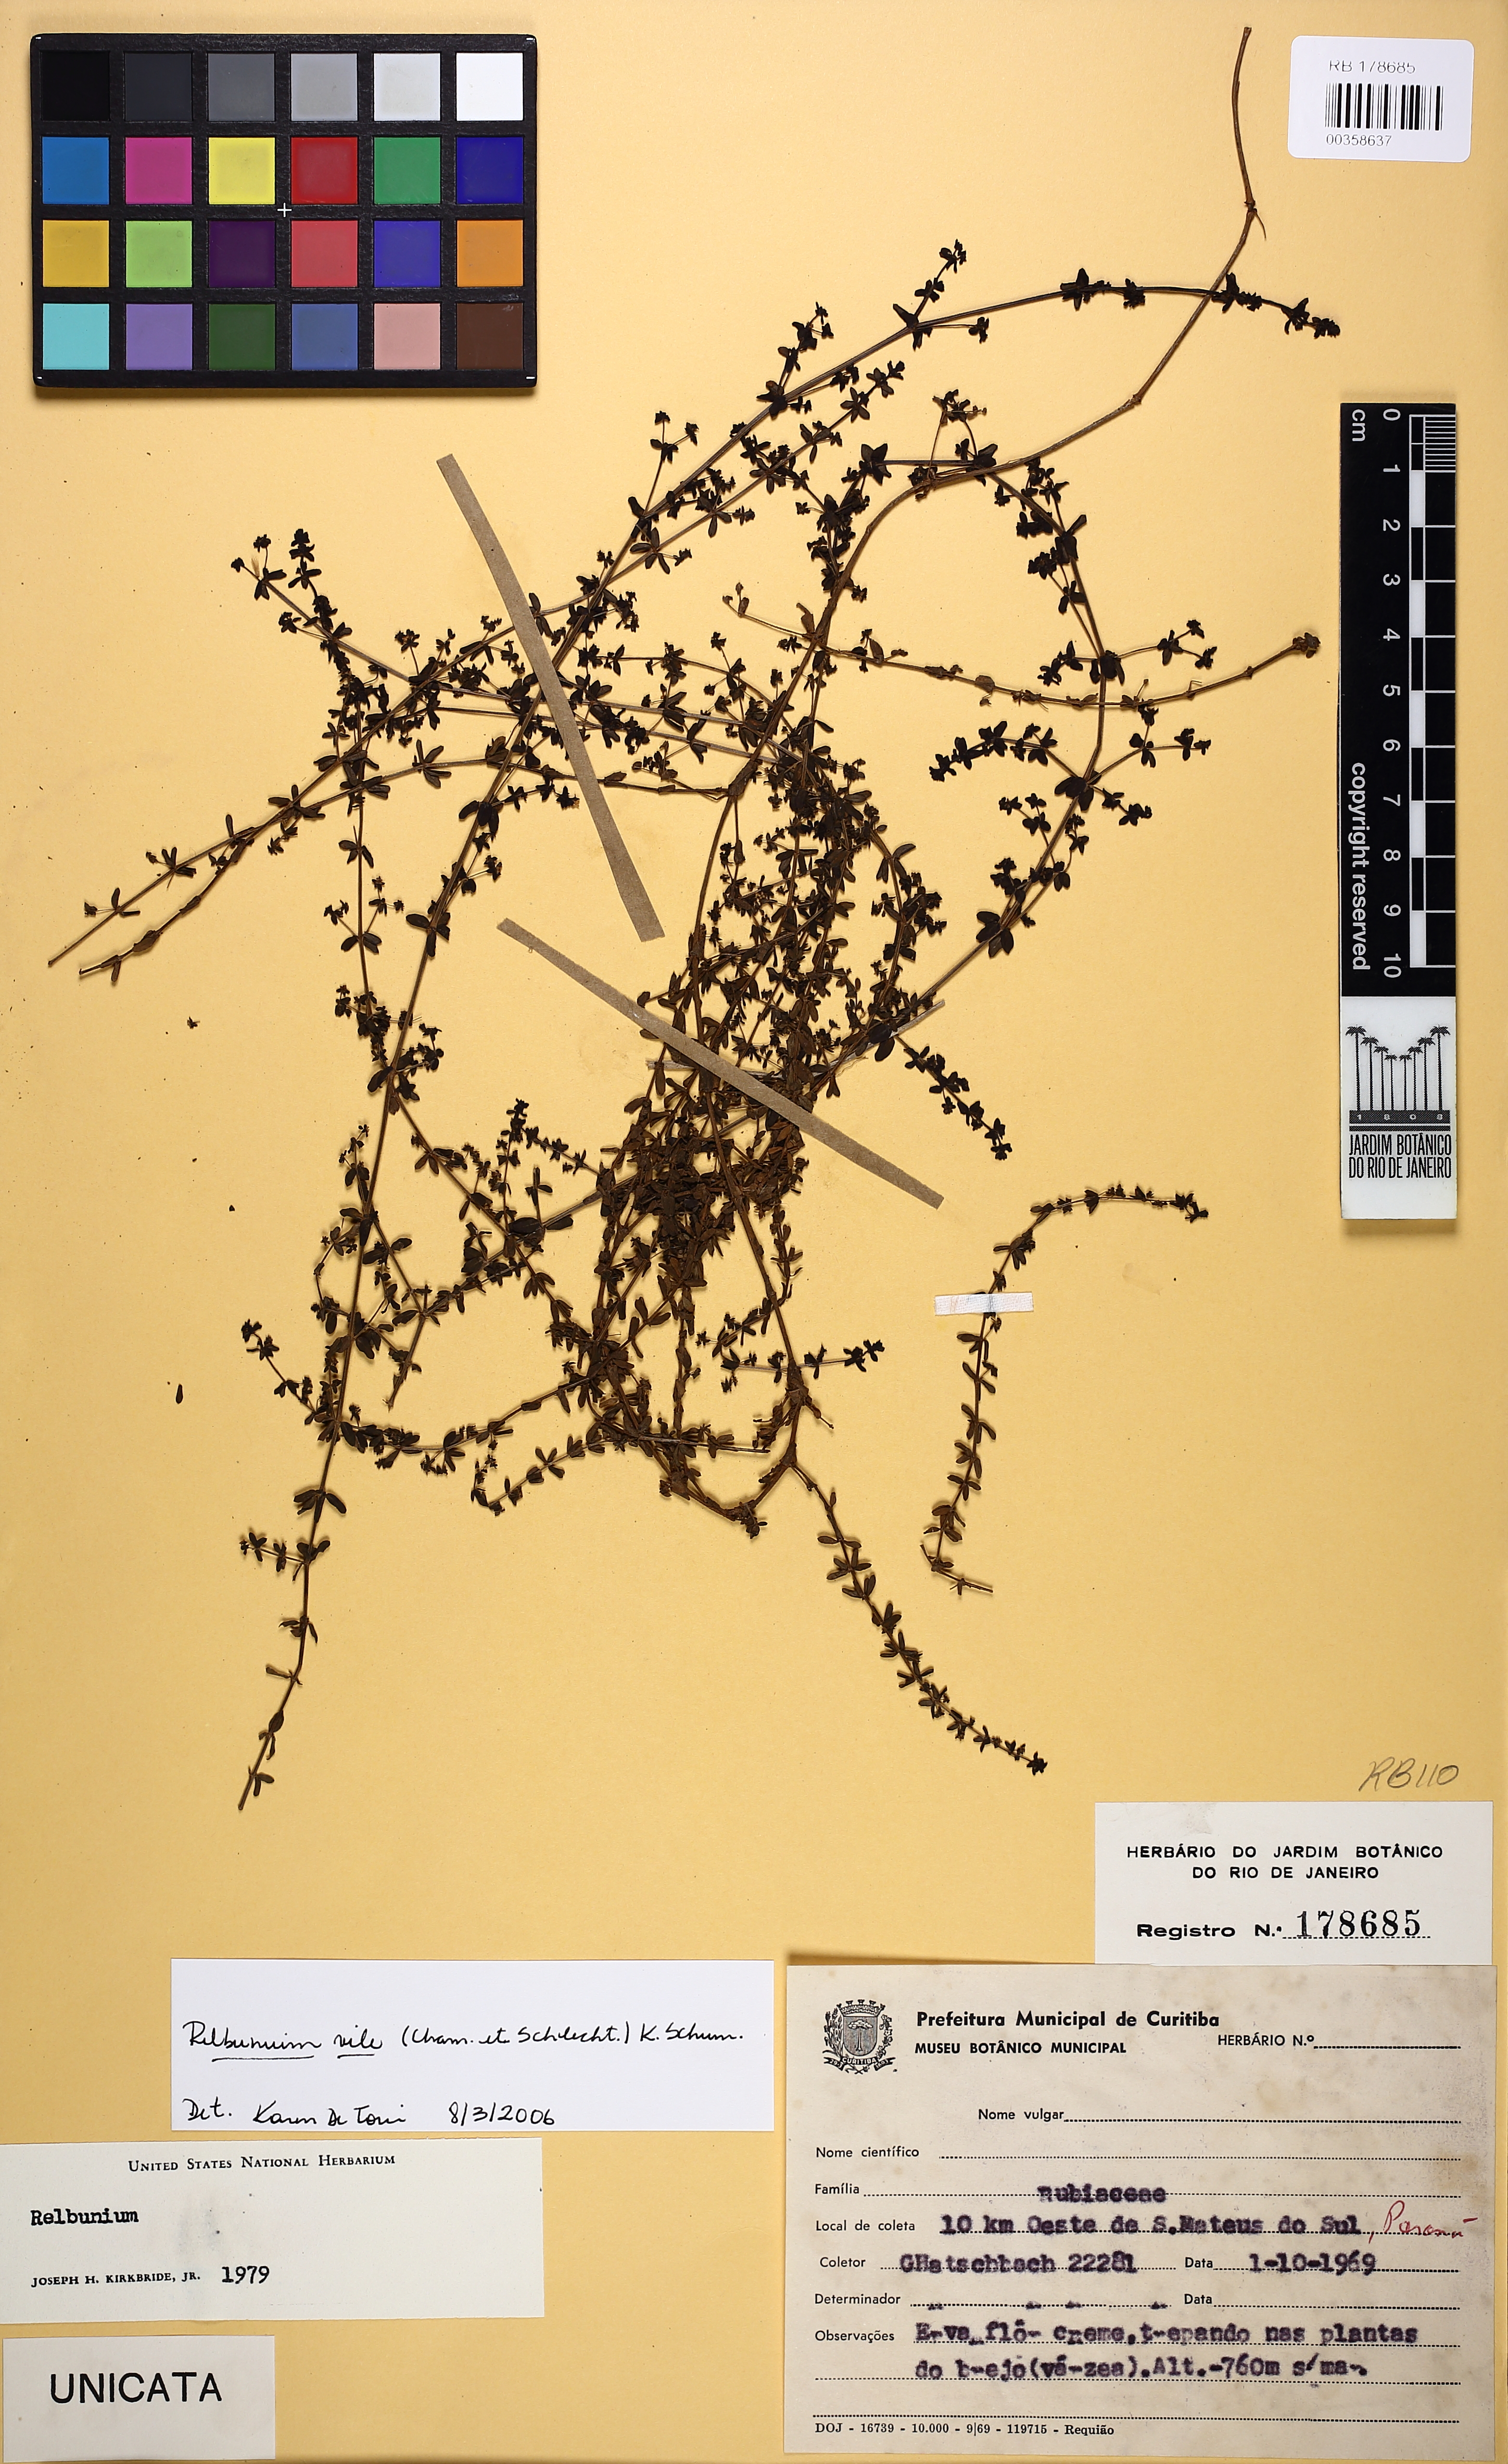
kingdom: Plantae
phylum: Tracheophyta
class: Magnoliopsida
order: Gentianales
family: Rubiaceae
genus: Galium
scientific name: Galium vile
